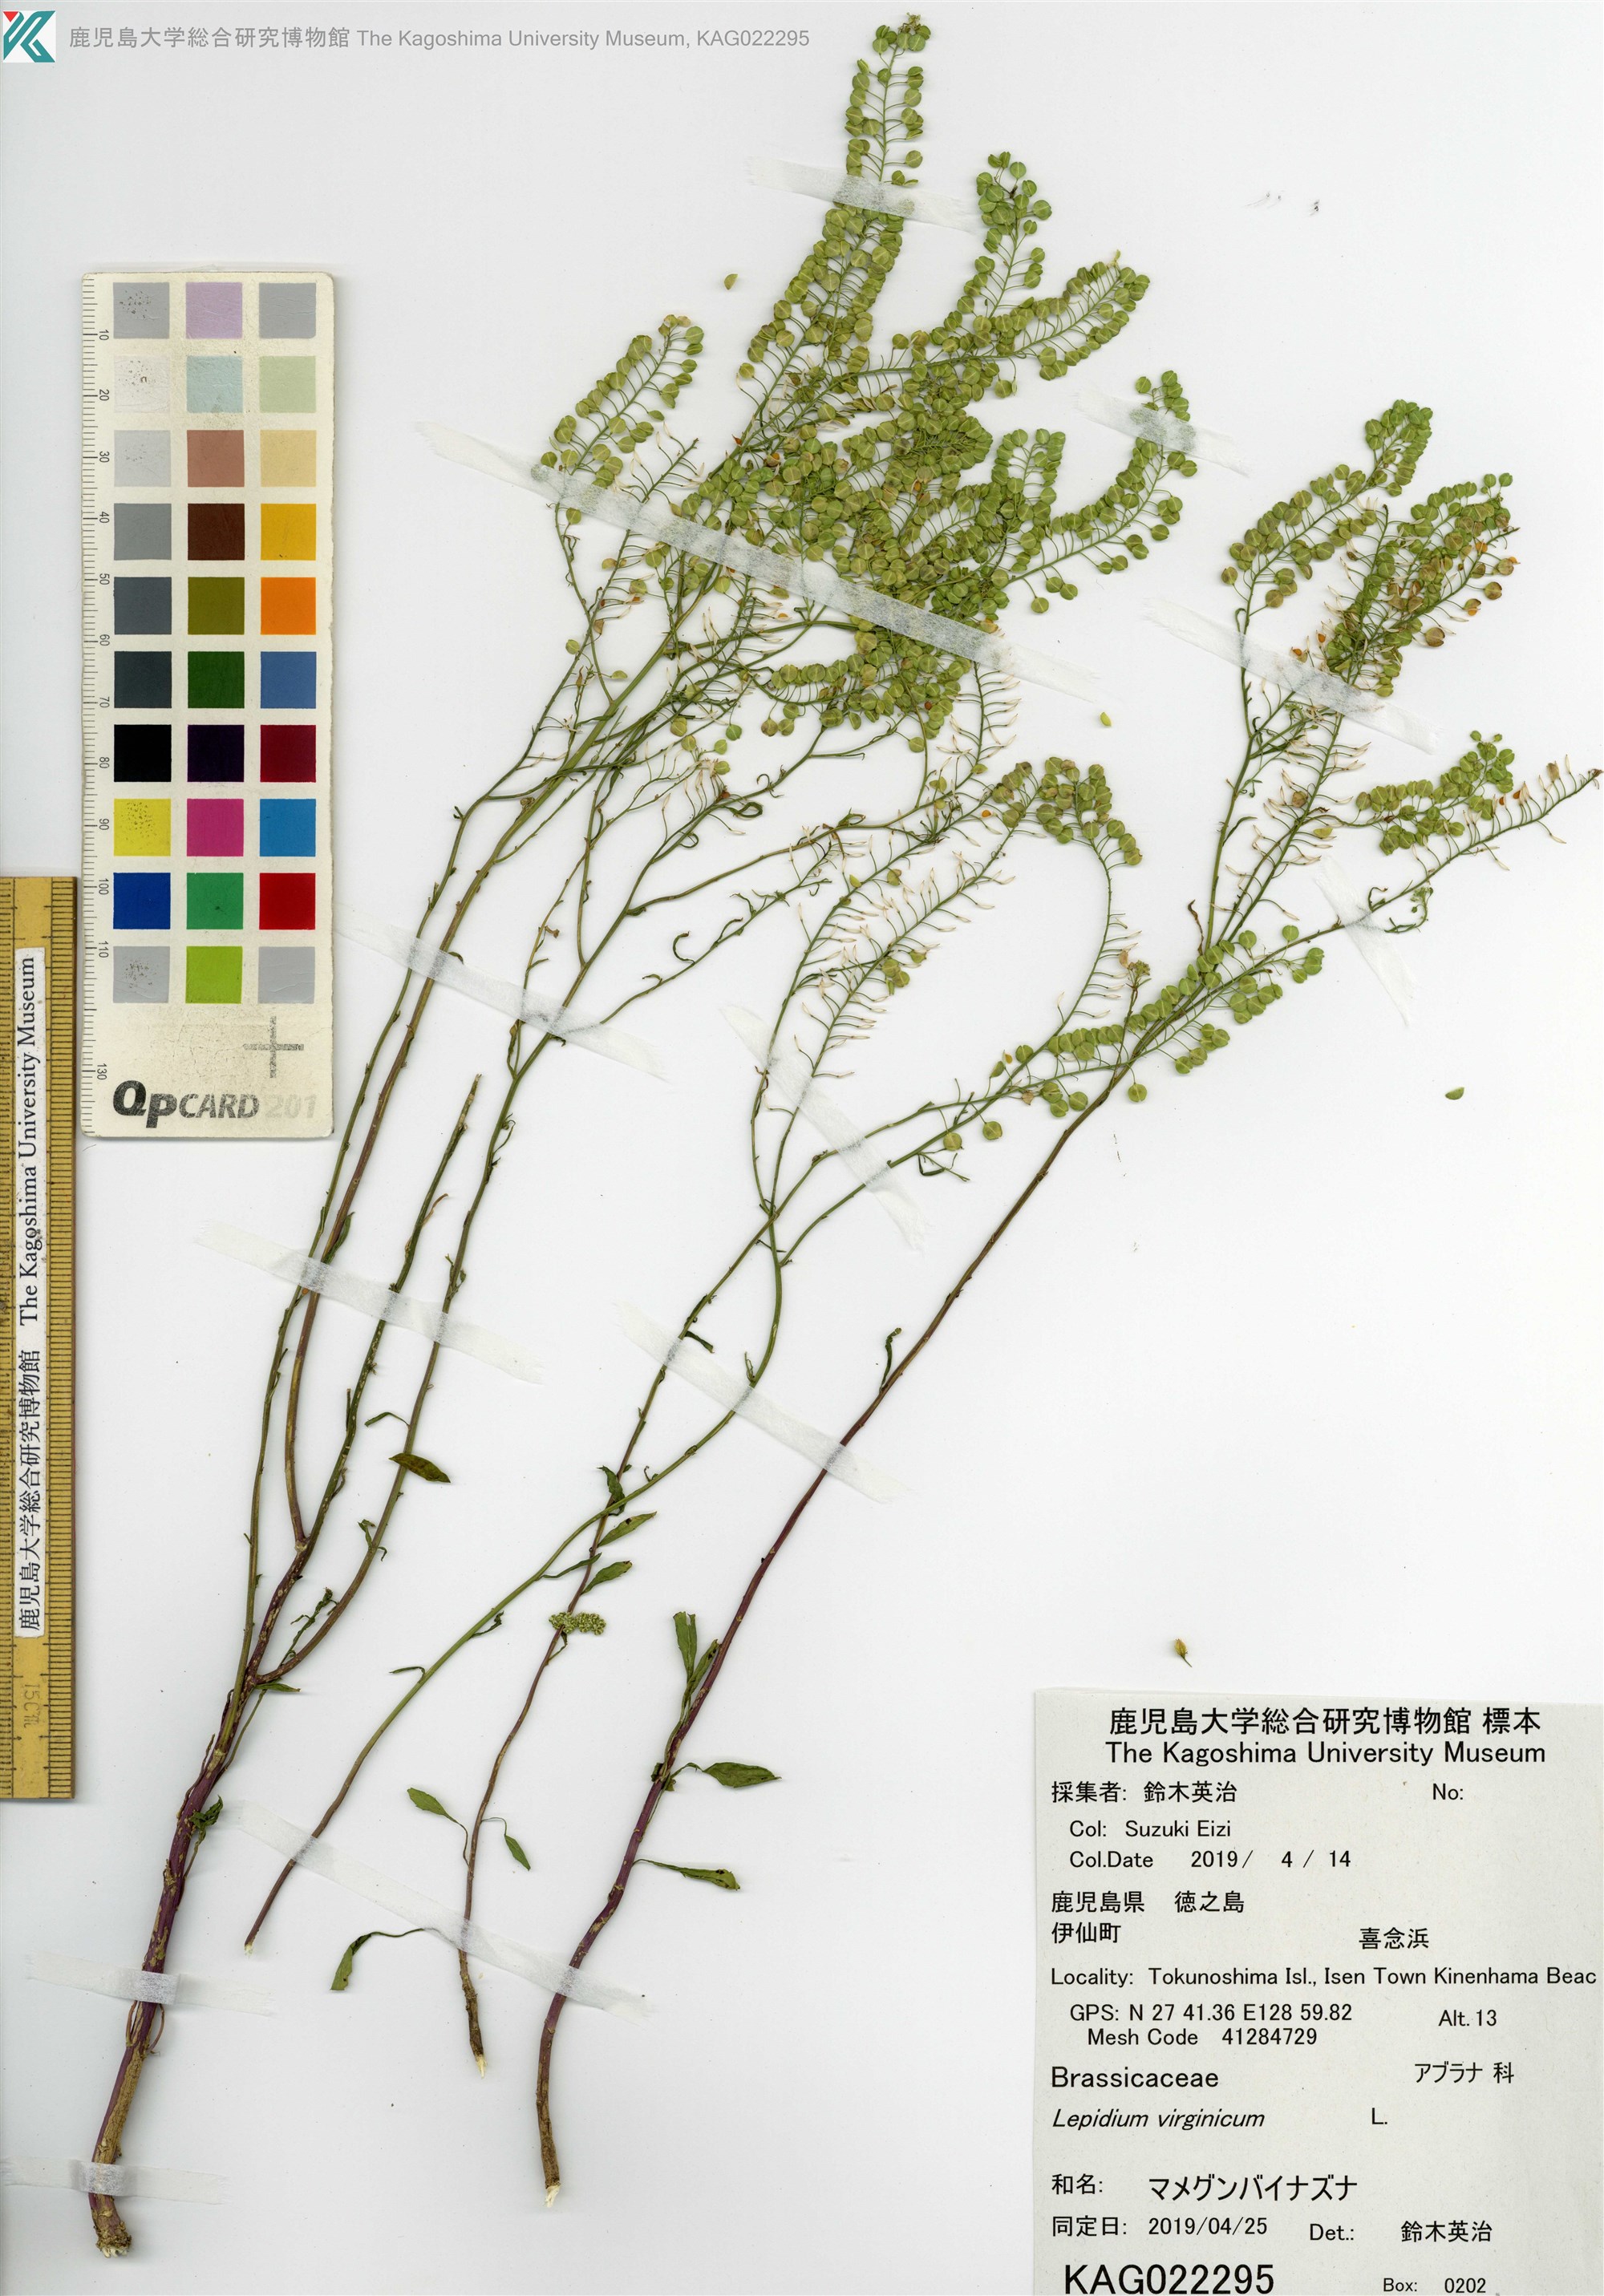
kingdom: Plantae
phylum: Tracheophyta
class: Magnoliopsida
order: Brassicales
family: Brassicaceae
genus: Lepidium
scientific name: Lepidium virginicum
